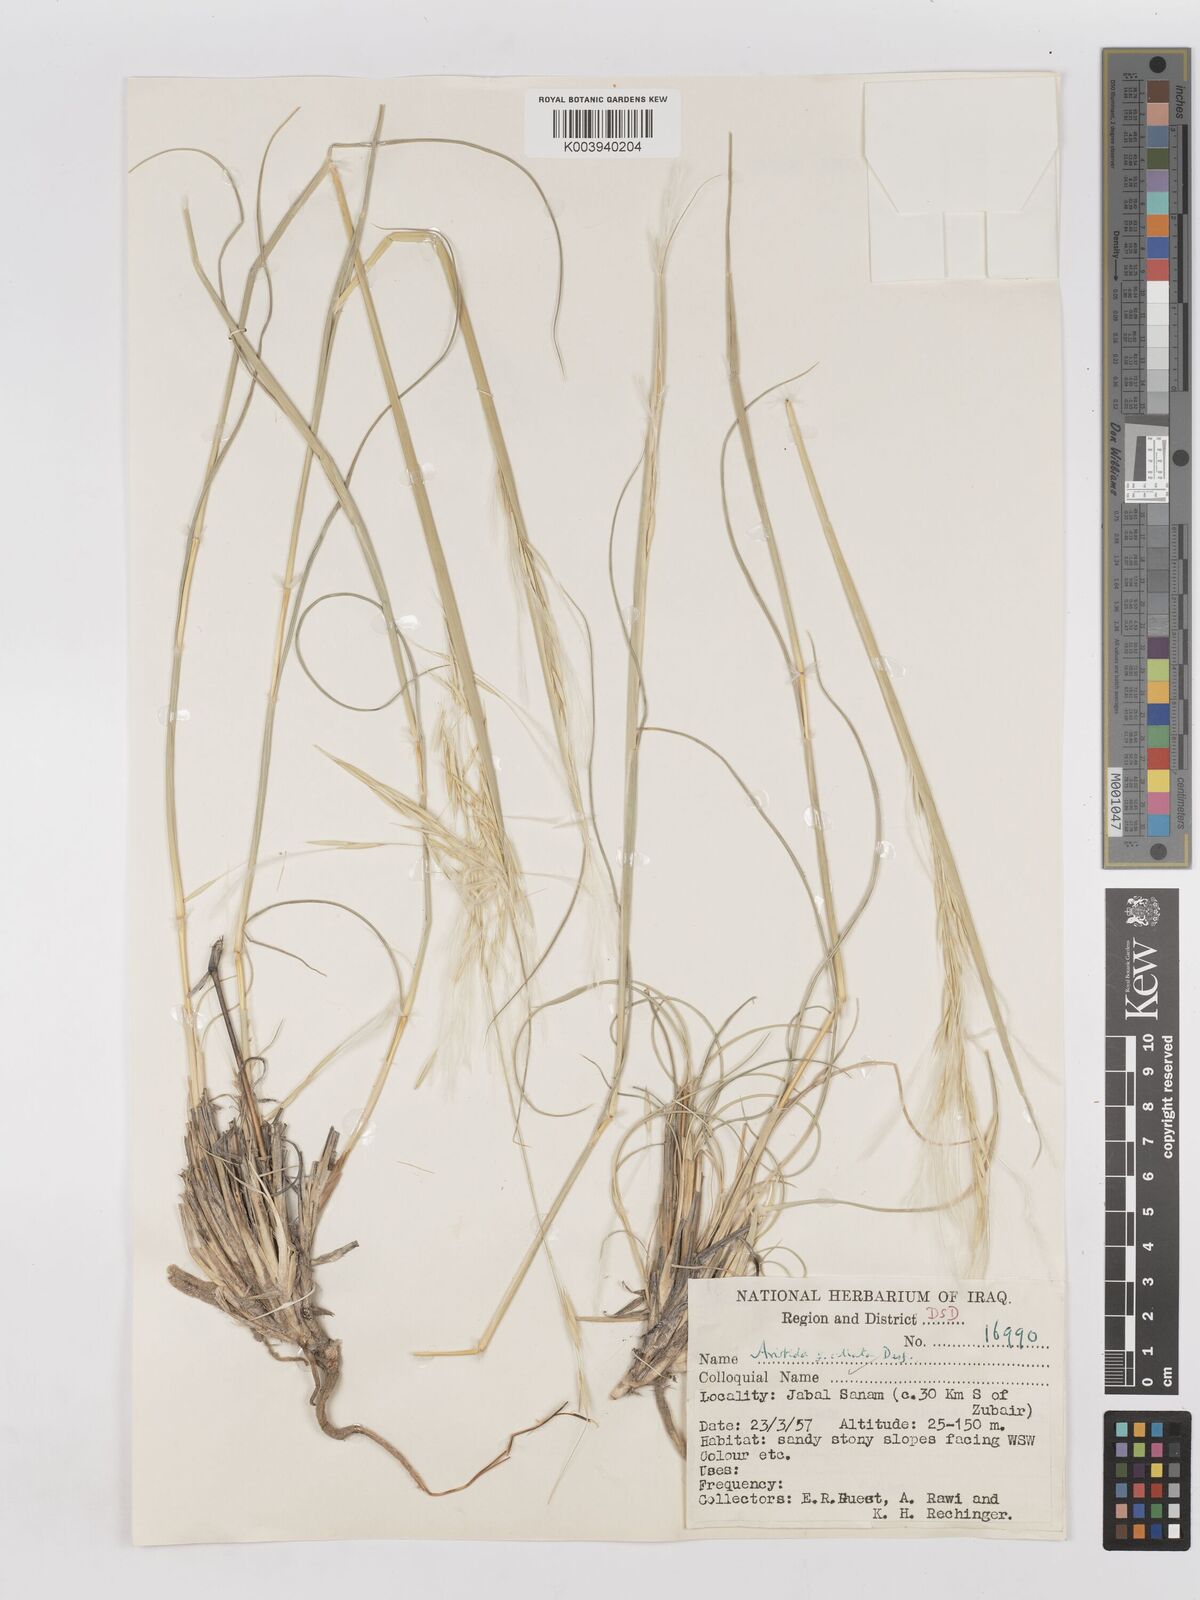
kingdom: Plantae
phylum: Tracheophyta
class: Liliopsida
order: Poales
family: Poaceae
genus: Stipagrostis
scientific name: Stipagrostis ciliata
